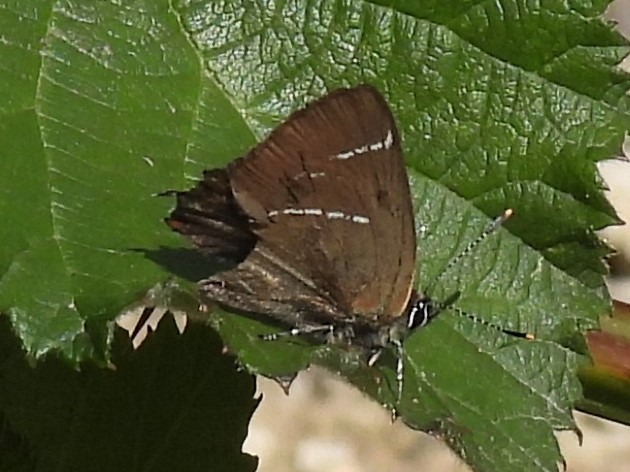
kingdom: Animalia
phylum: Arthropoda
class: Insecta
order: Lepidoptera
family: Lycaenidae
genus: Satyrium
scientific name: Satyrium w-album
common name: Det hvide W
